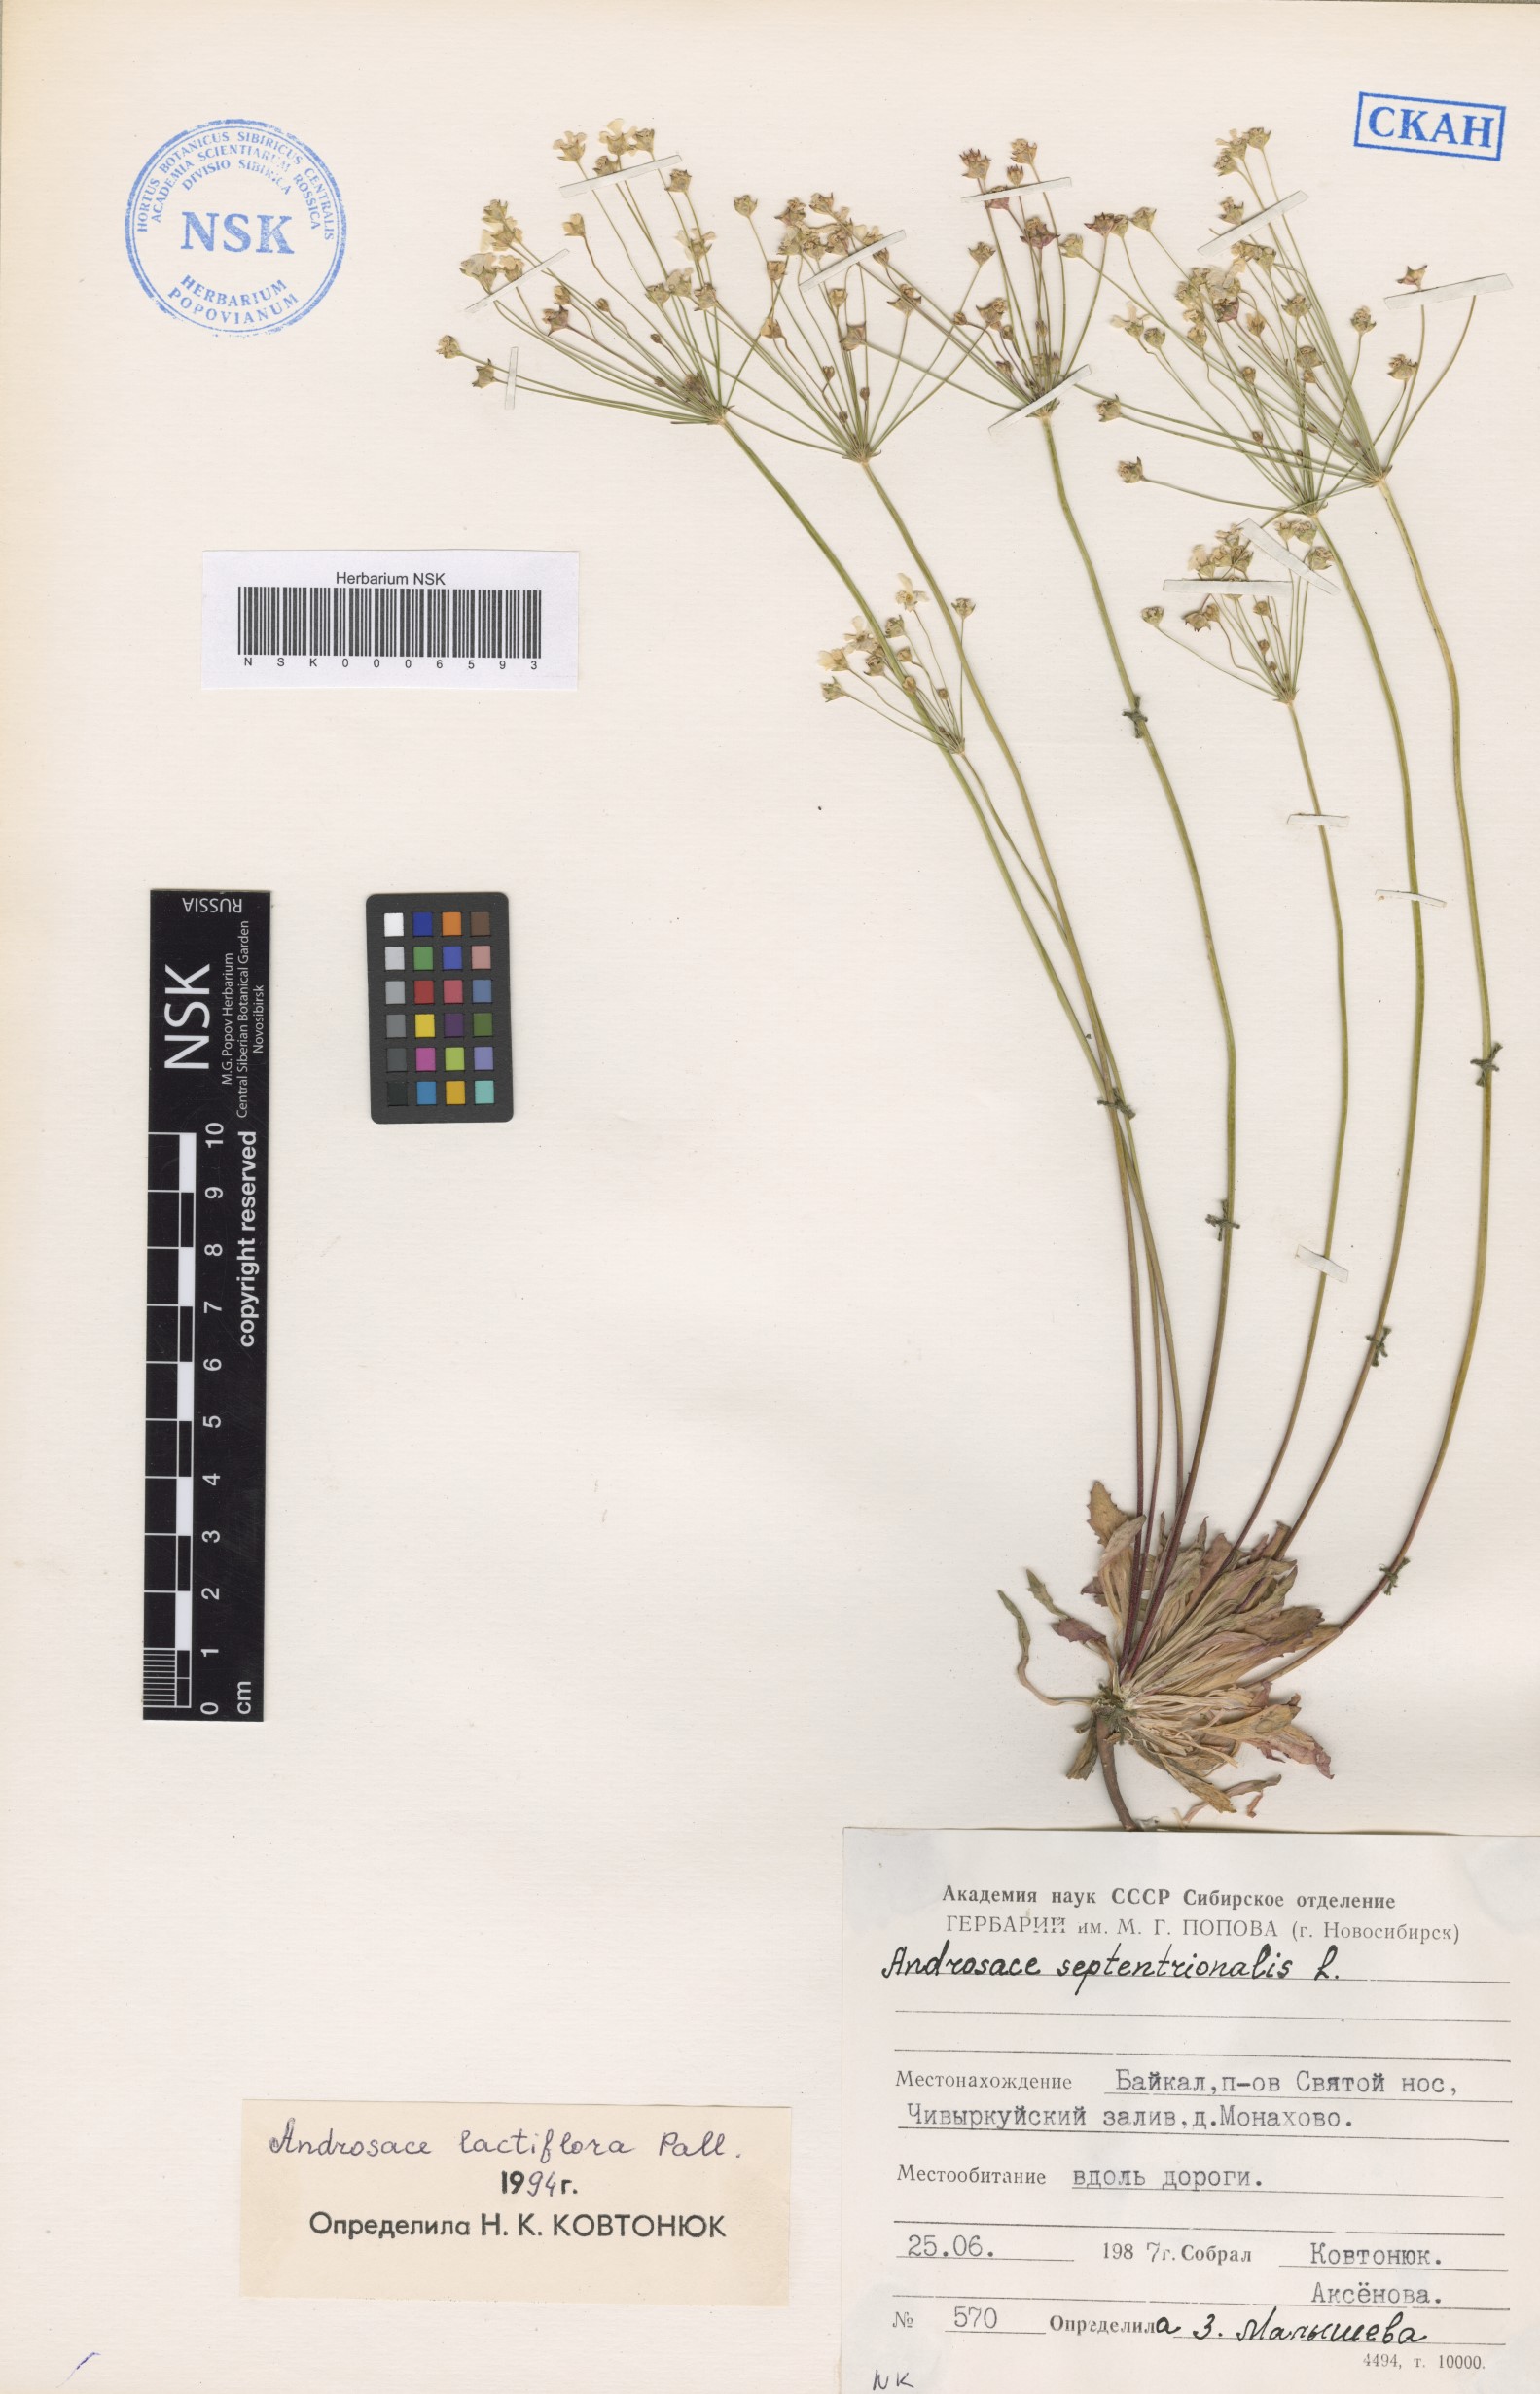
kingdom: Plantae
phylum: Tracheophyta
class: Magnoliopsida
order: Ericales
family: Primulaceae
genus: Androsace
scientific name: Androsace lactiflora
